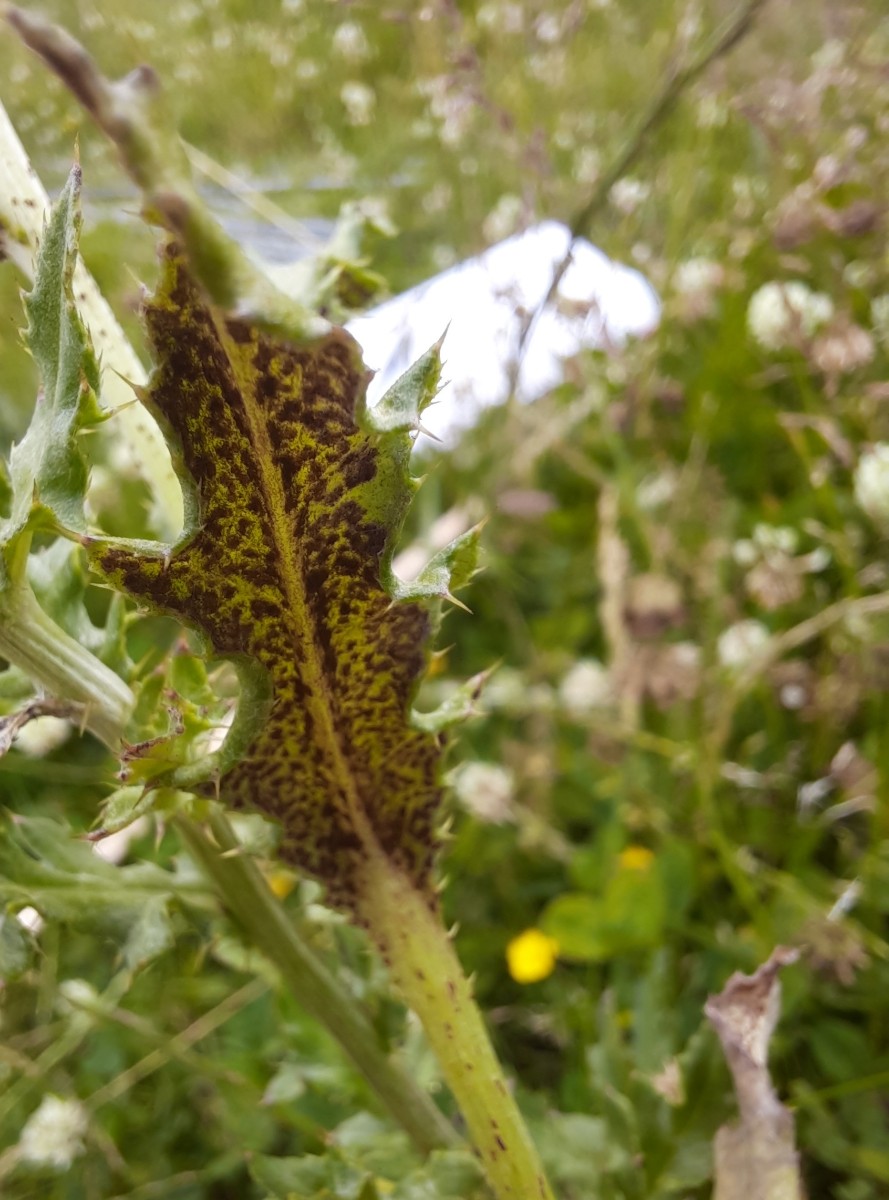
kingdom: Fungi
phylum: Basidiomycota
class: Pucciniomycetes
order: Pucciniales
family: Pucciniaceae
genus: Puccinia
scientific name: Puccinia suaveolens
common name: tidsel-tvecellerust
